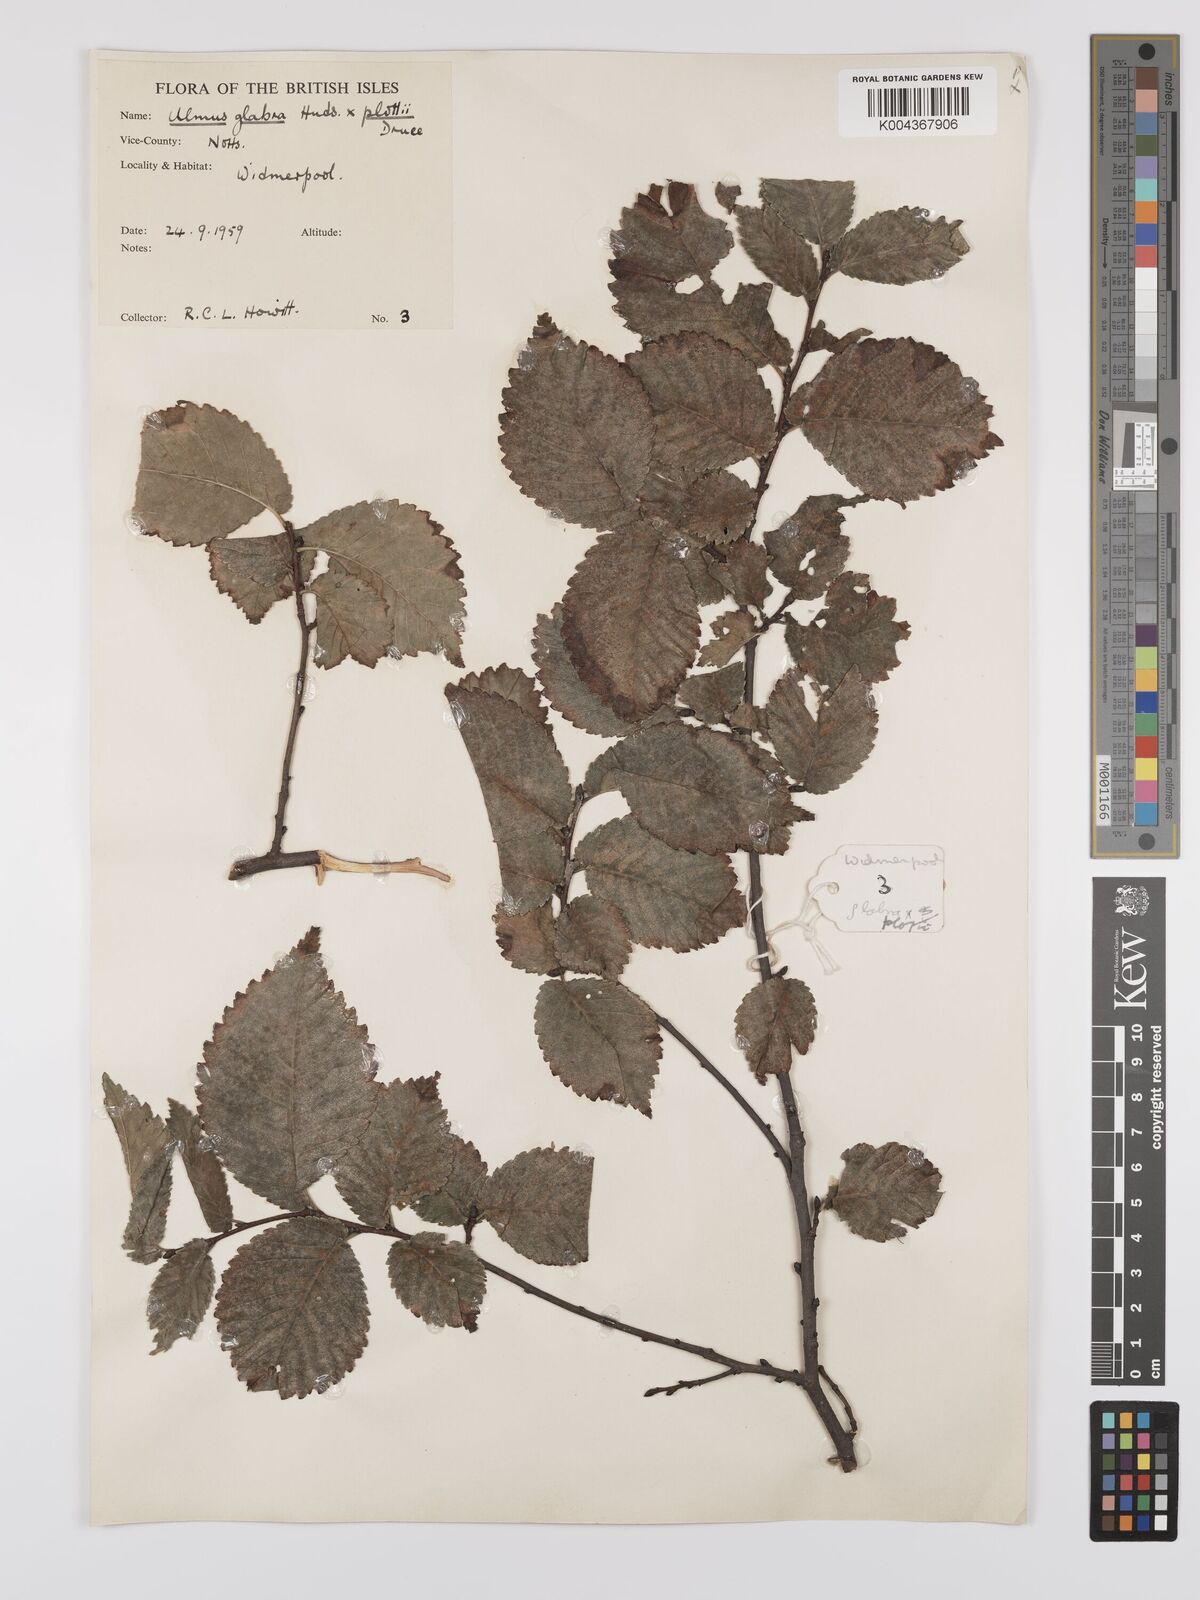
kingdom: Plantae
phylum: Tracheophyta
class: Magnoliopsida
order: Rosales
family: Ulmaceae
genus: Ulmus
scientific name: Ulmus glabra
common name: Wych elm
